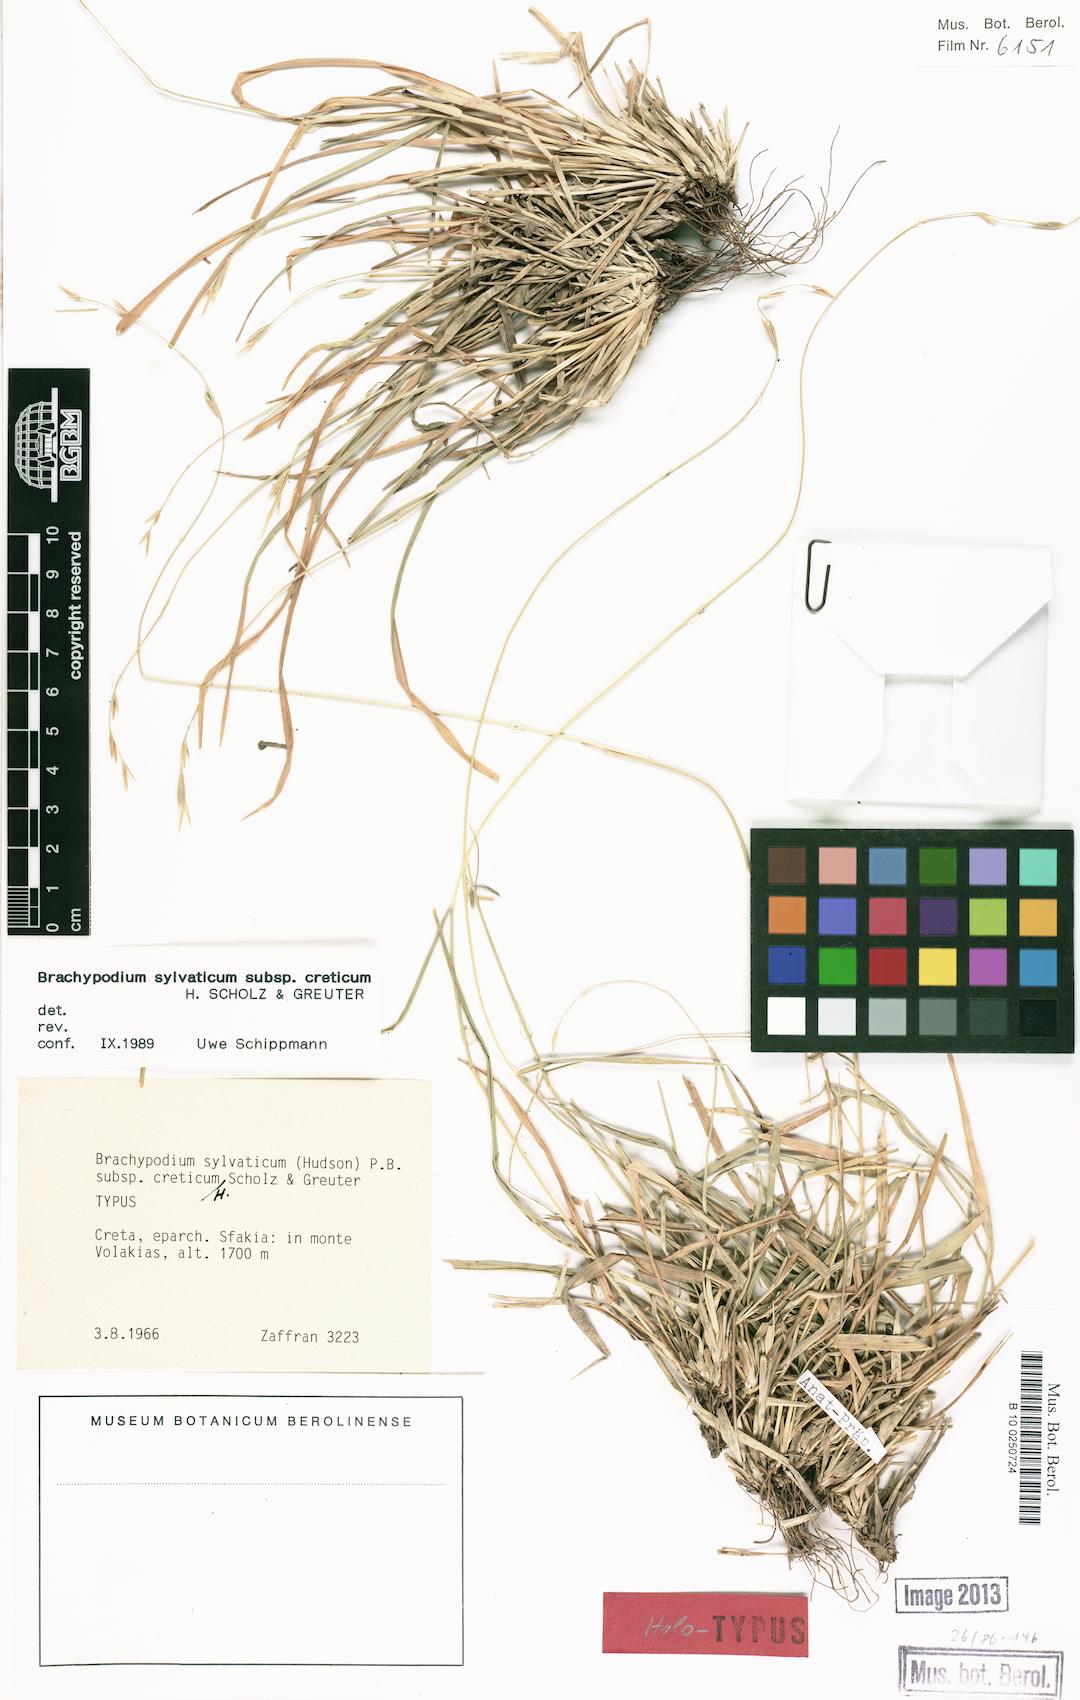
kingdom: Plantae
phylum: Tracheophyta
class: Liliopsida
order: Poales
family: Poaceae
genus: Brachypodium
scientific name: Brachypodium sylvaticum
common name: False-brome
